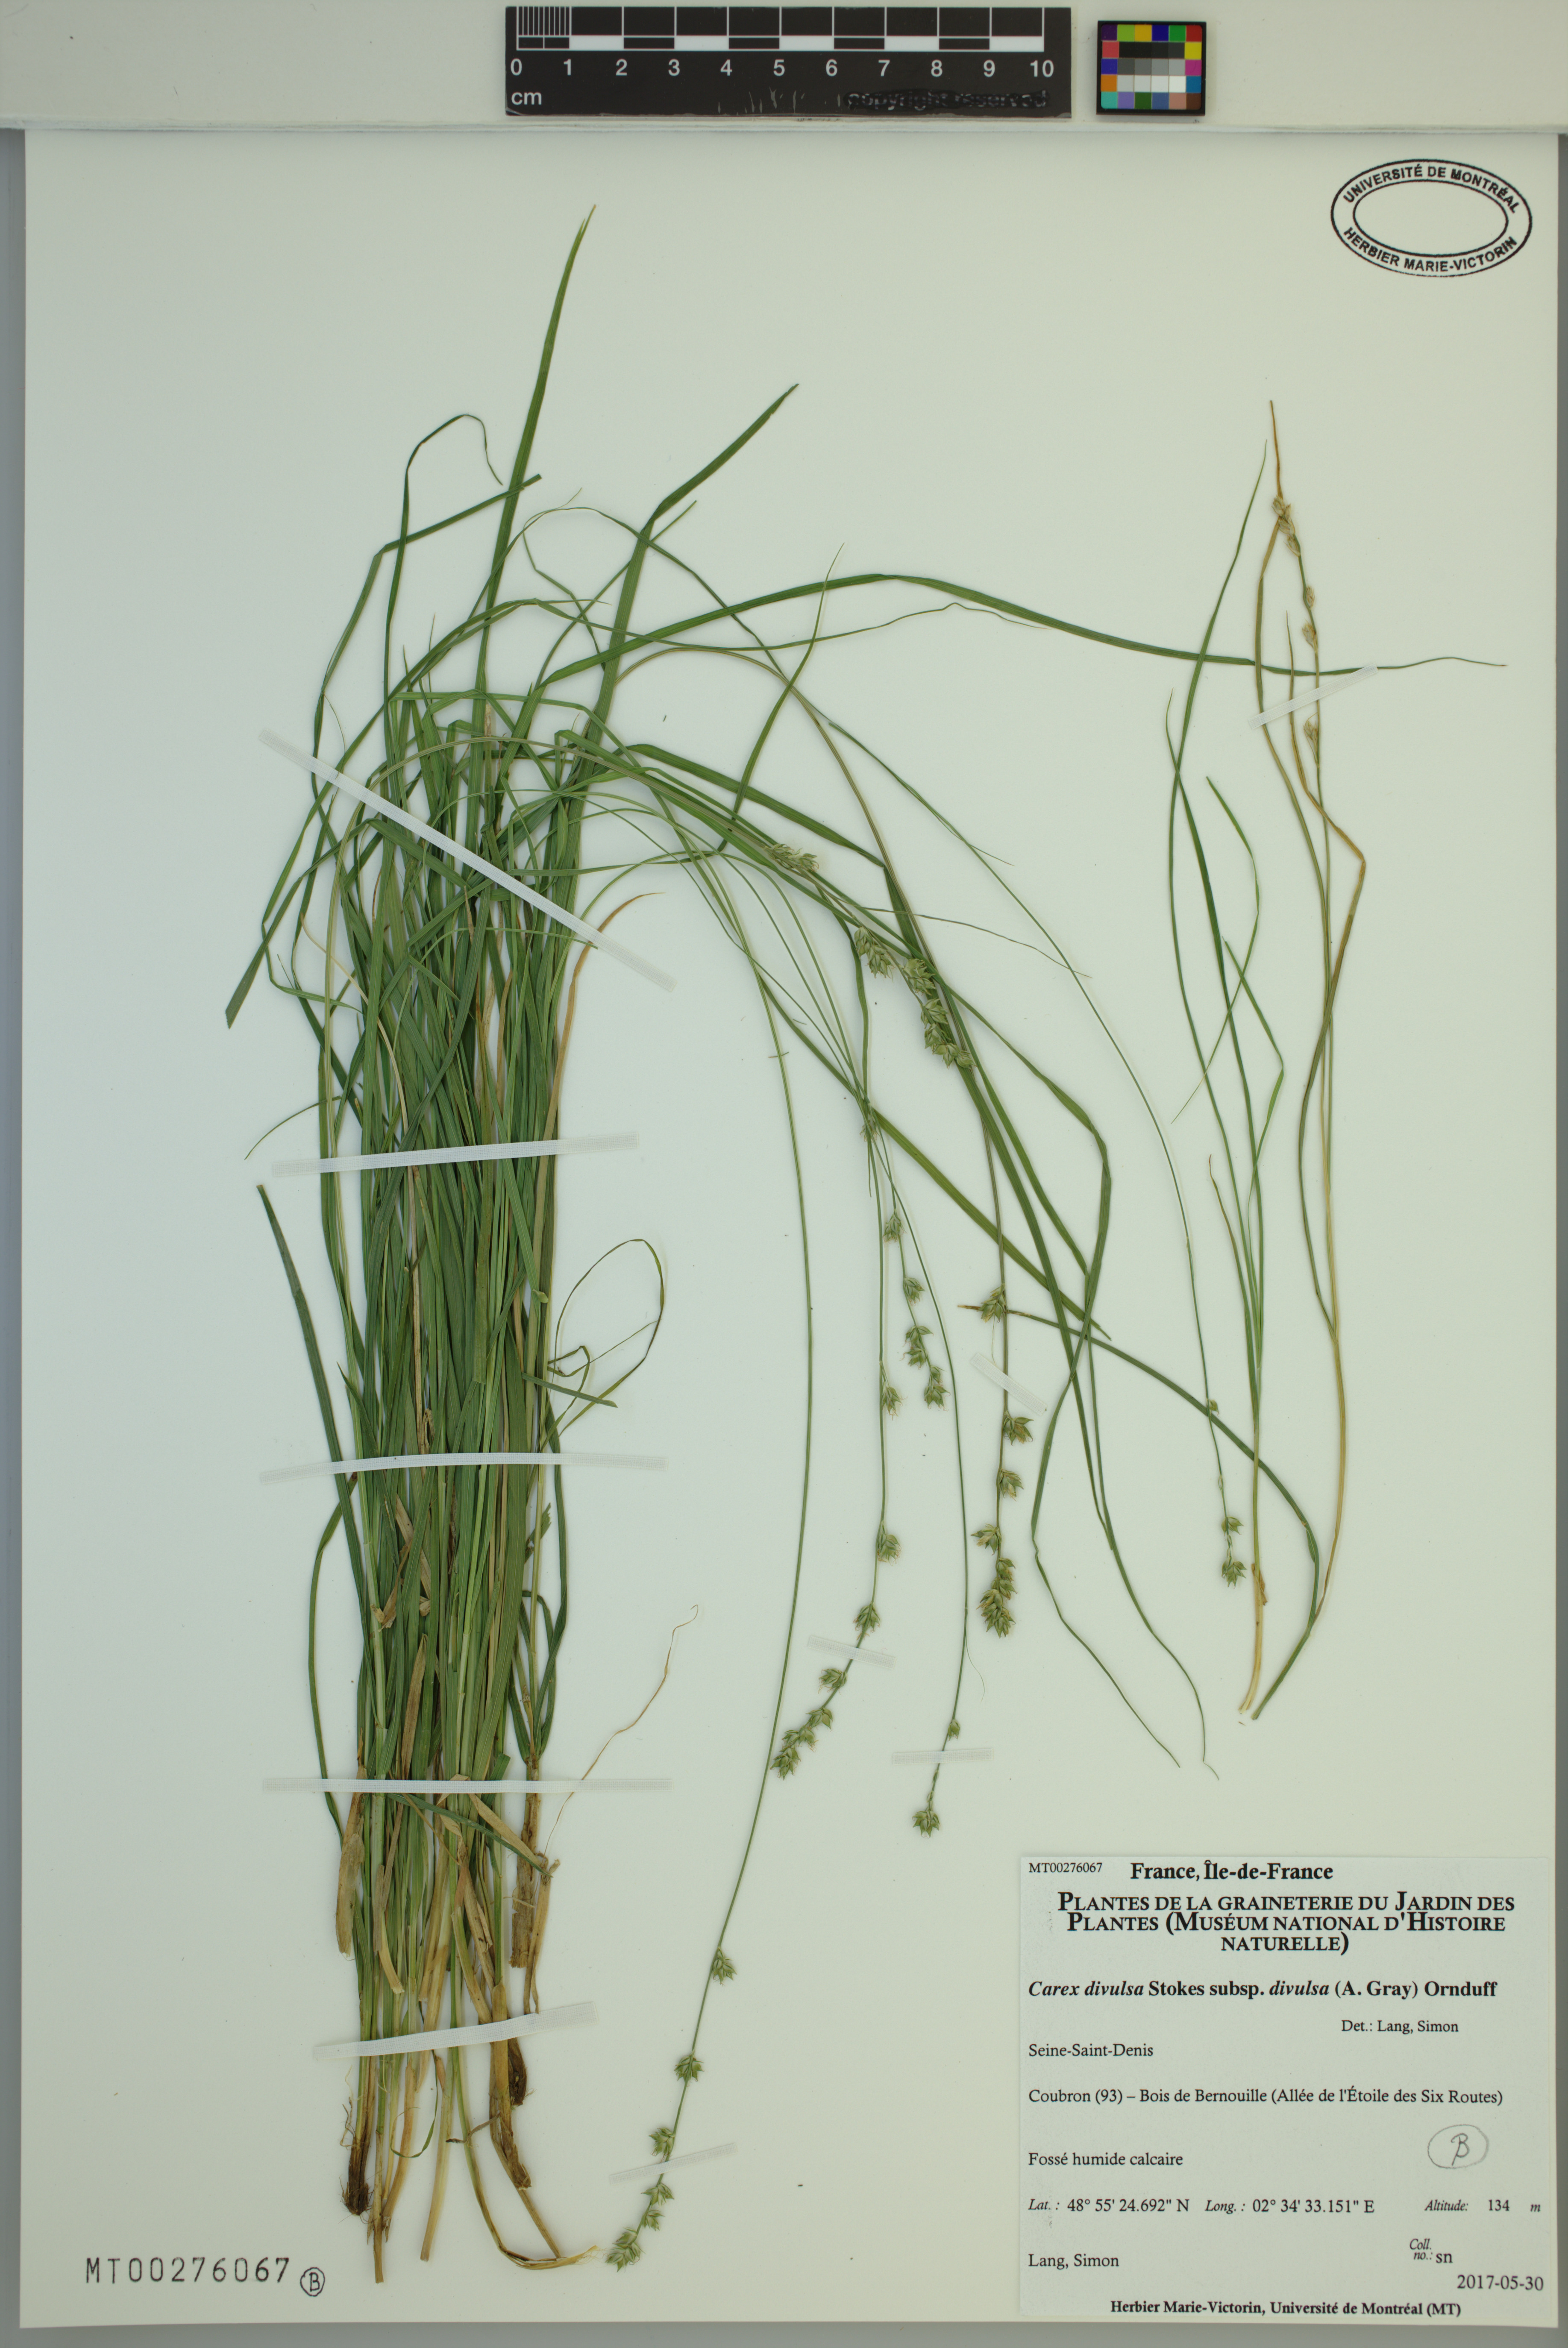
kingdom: Plantae
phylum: Tracheophyta
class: Liliopsida
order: Poales
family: Cyperaceae
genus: Carex
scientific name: Carex divulsa
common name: Grassland sedge
